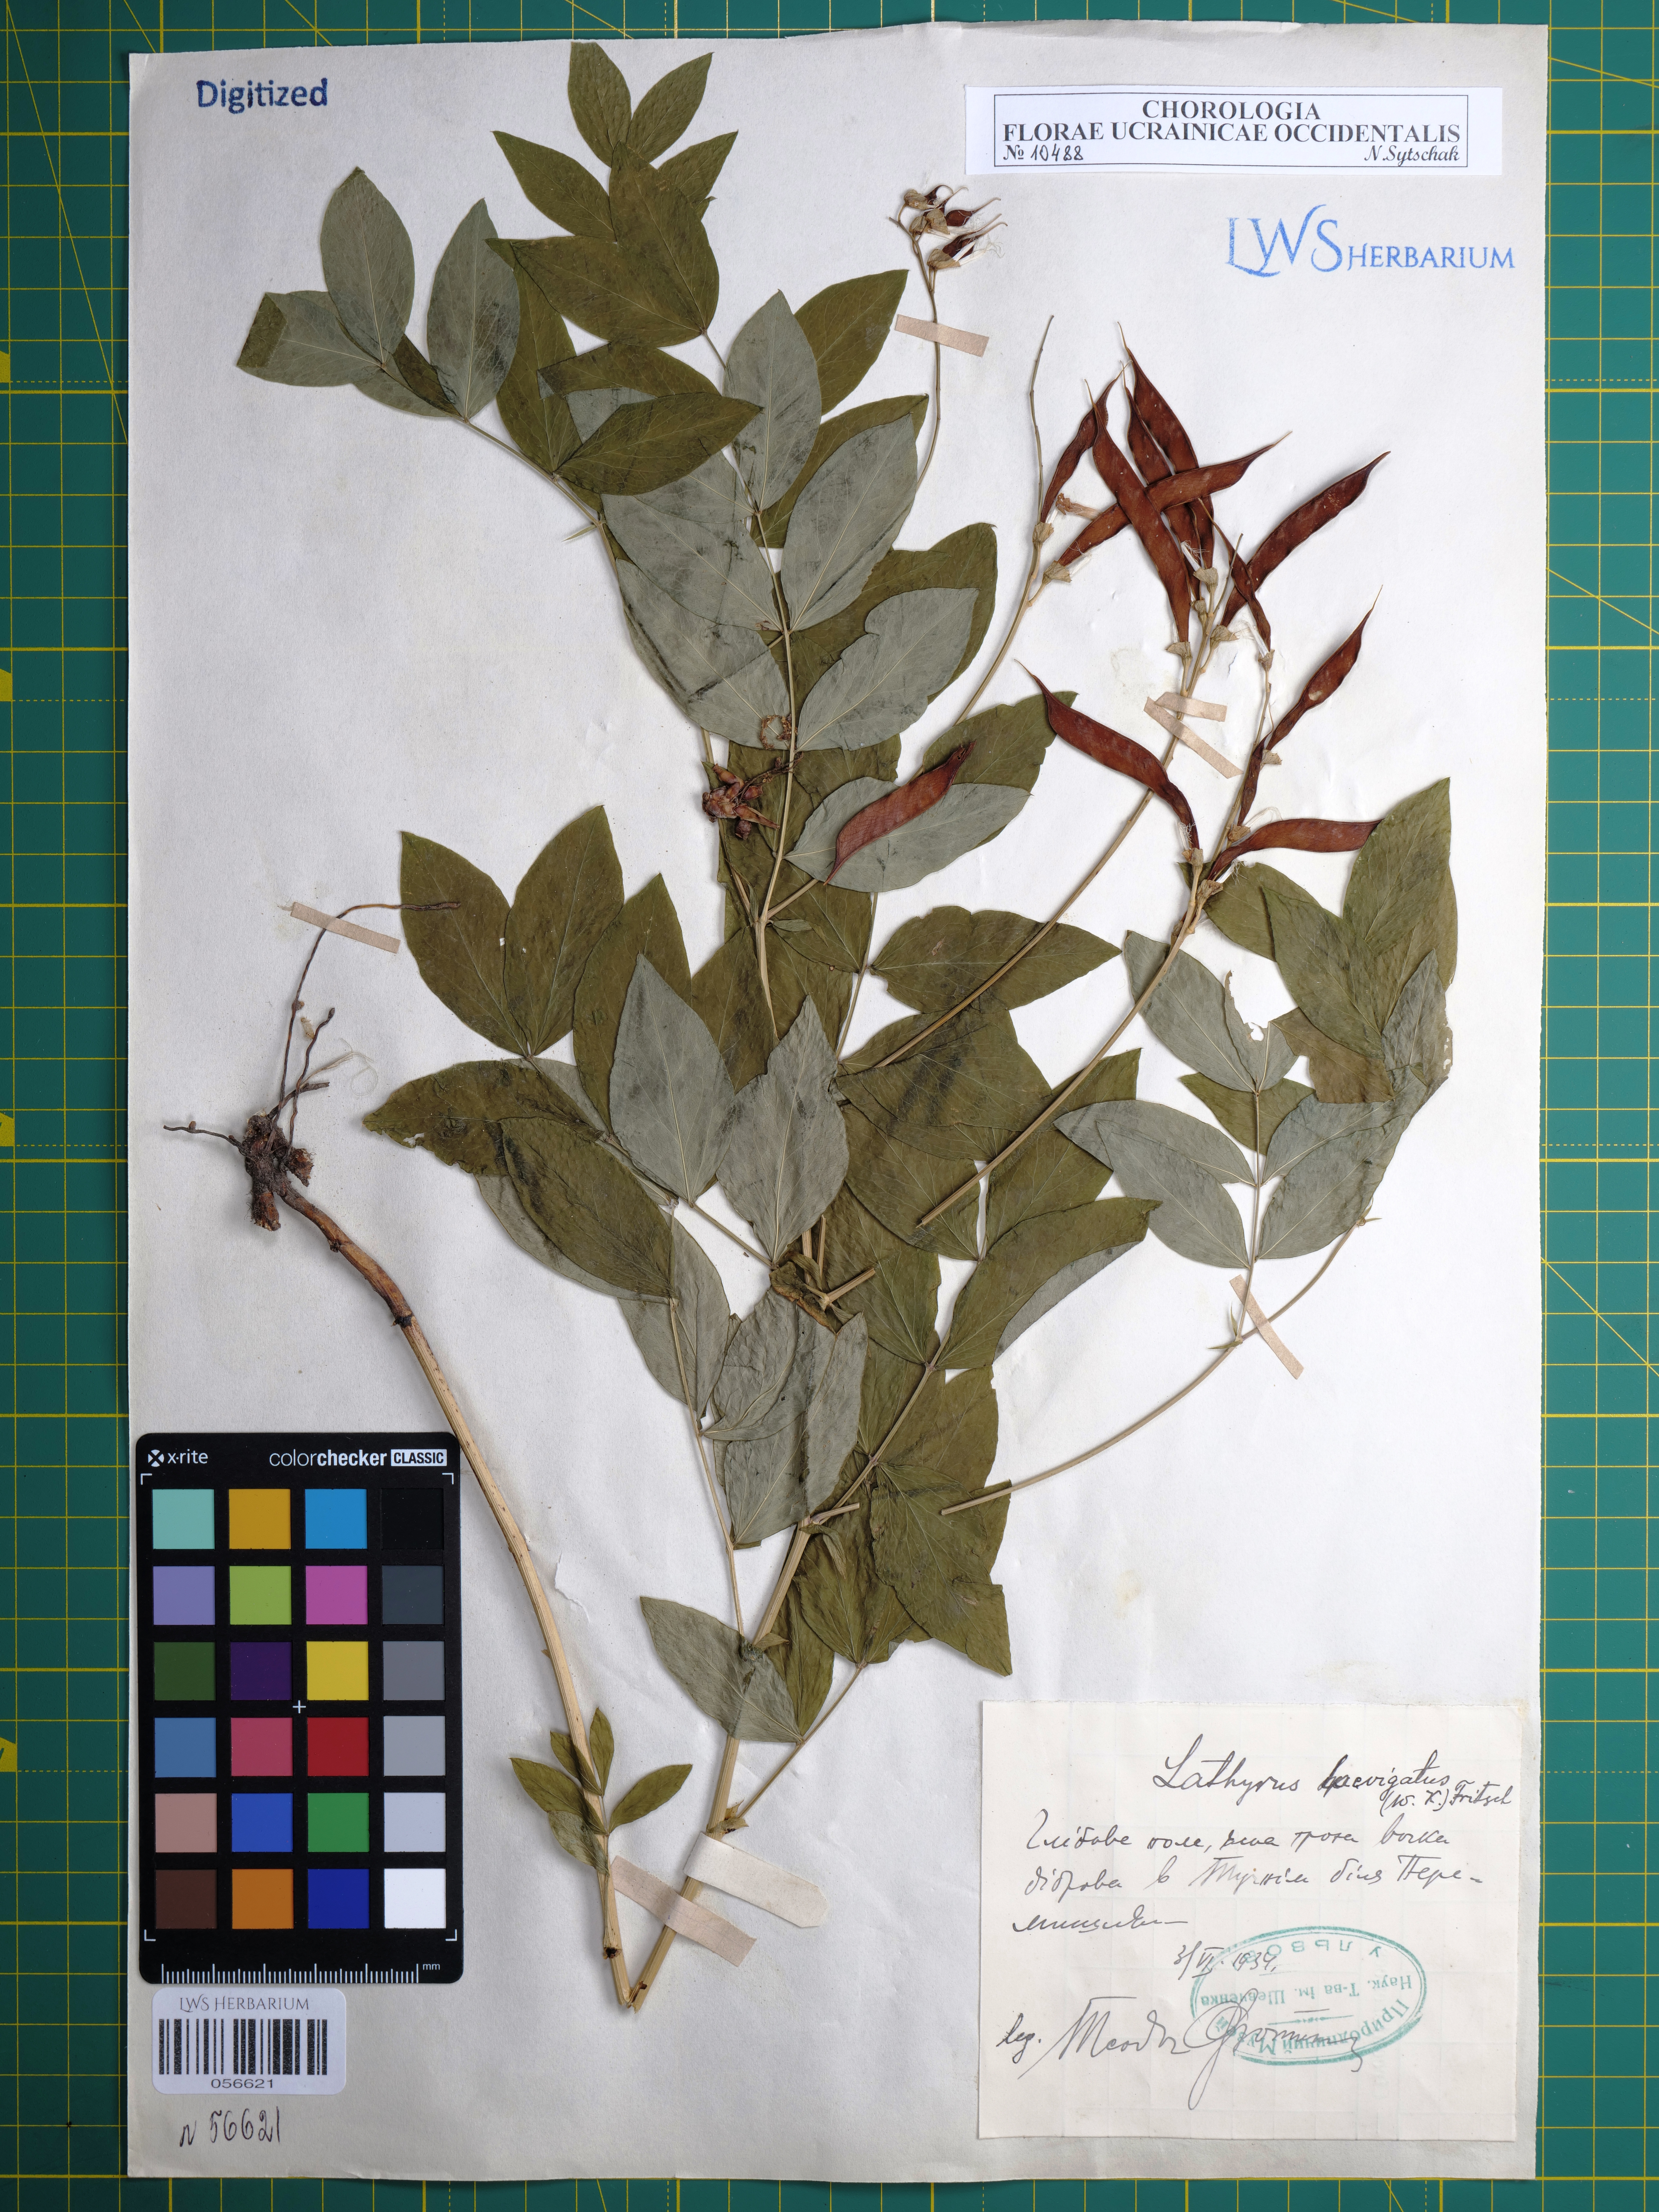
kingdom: Plantae
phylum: Tracheophyta
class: Magnoliopsida
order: Fabales
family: Fabaceae
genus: Lathyrus
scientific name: Lathyrus laevigatus
